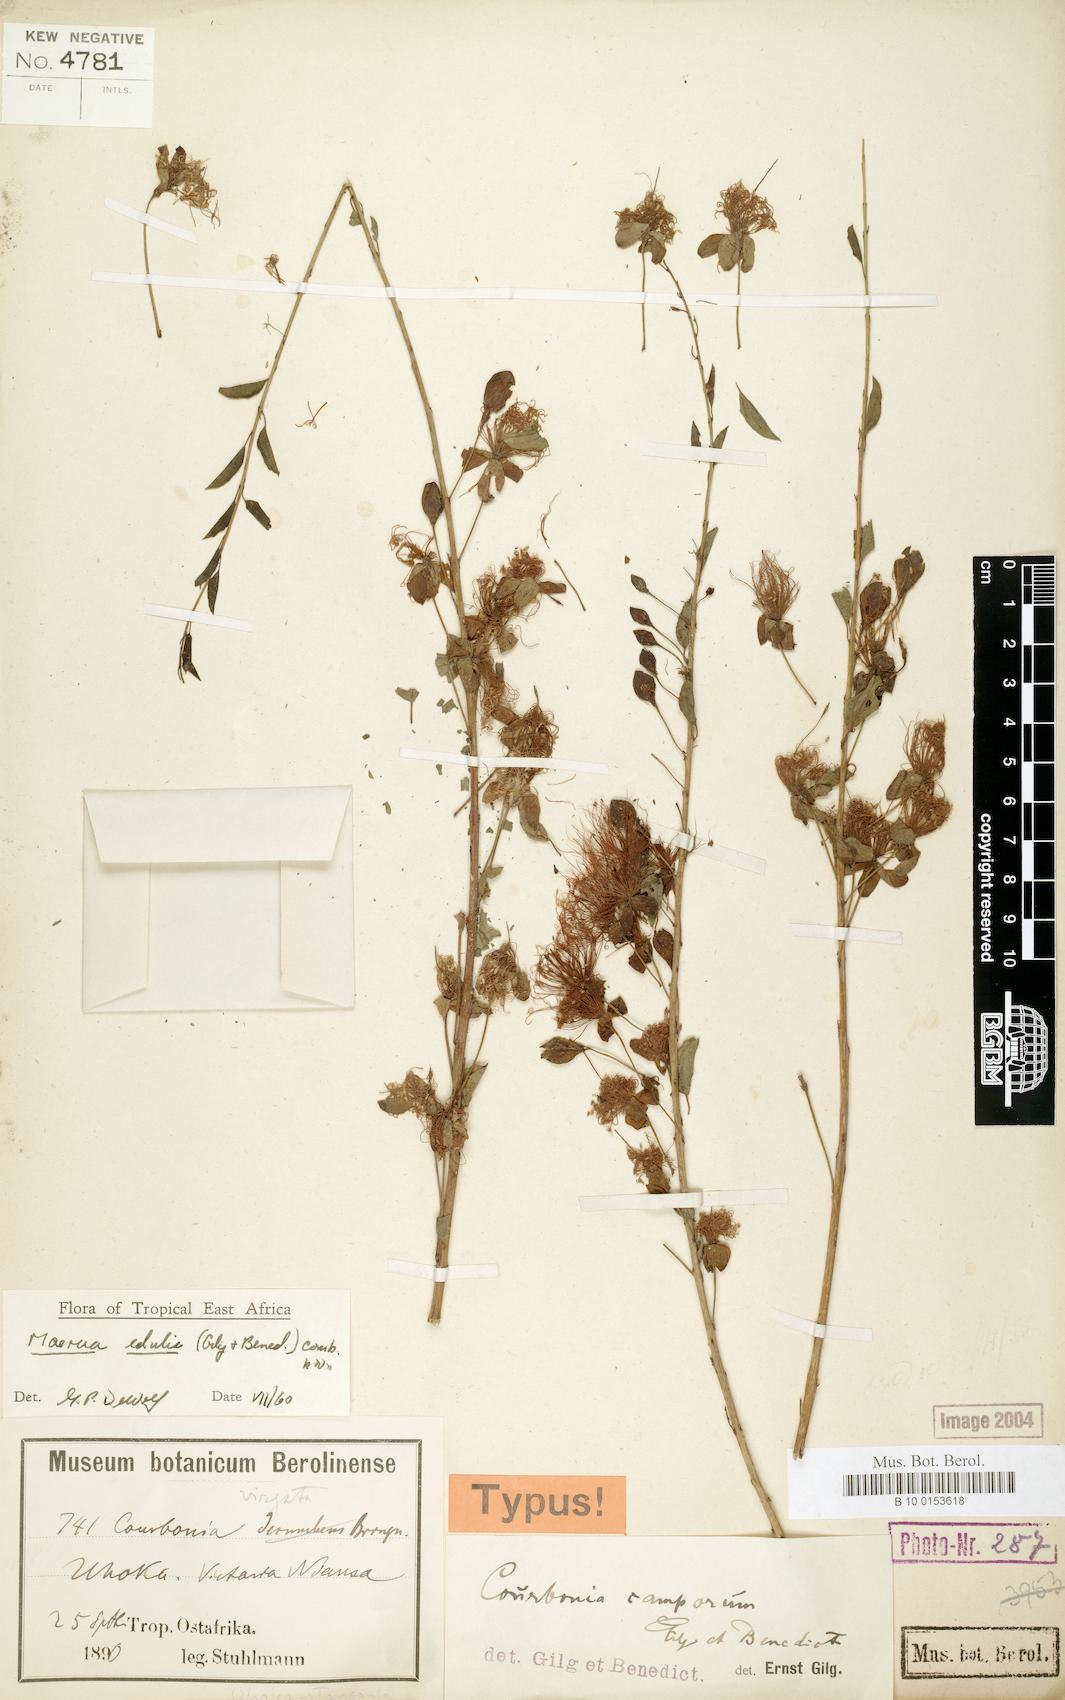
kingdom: Plantae
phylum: Tracheophyta
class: Magnoliopsida
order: Brassicales
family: Capparaceae
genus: Maerua
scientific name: Maerua edulis
